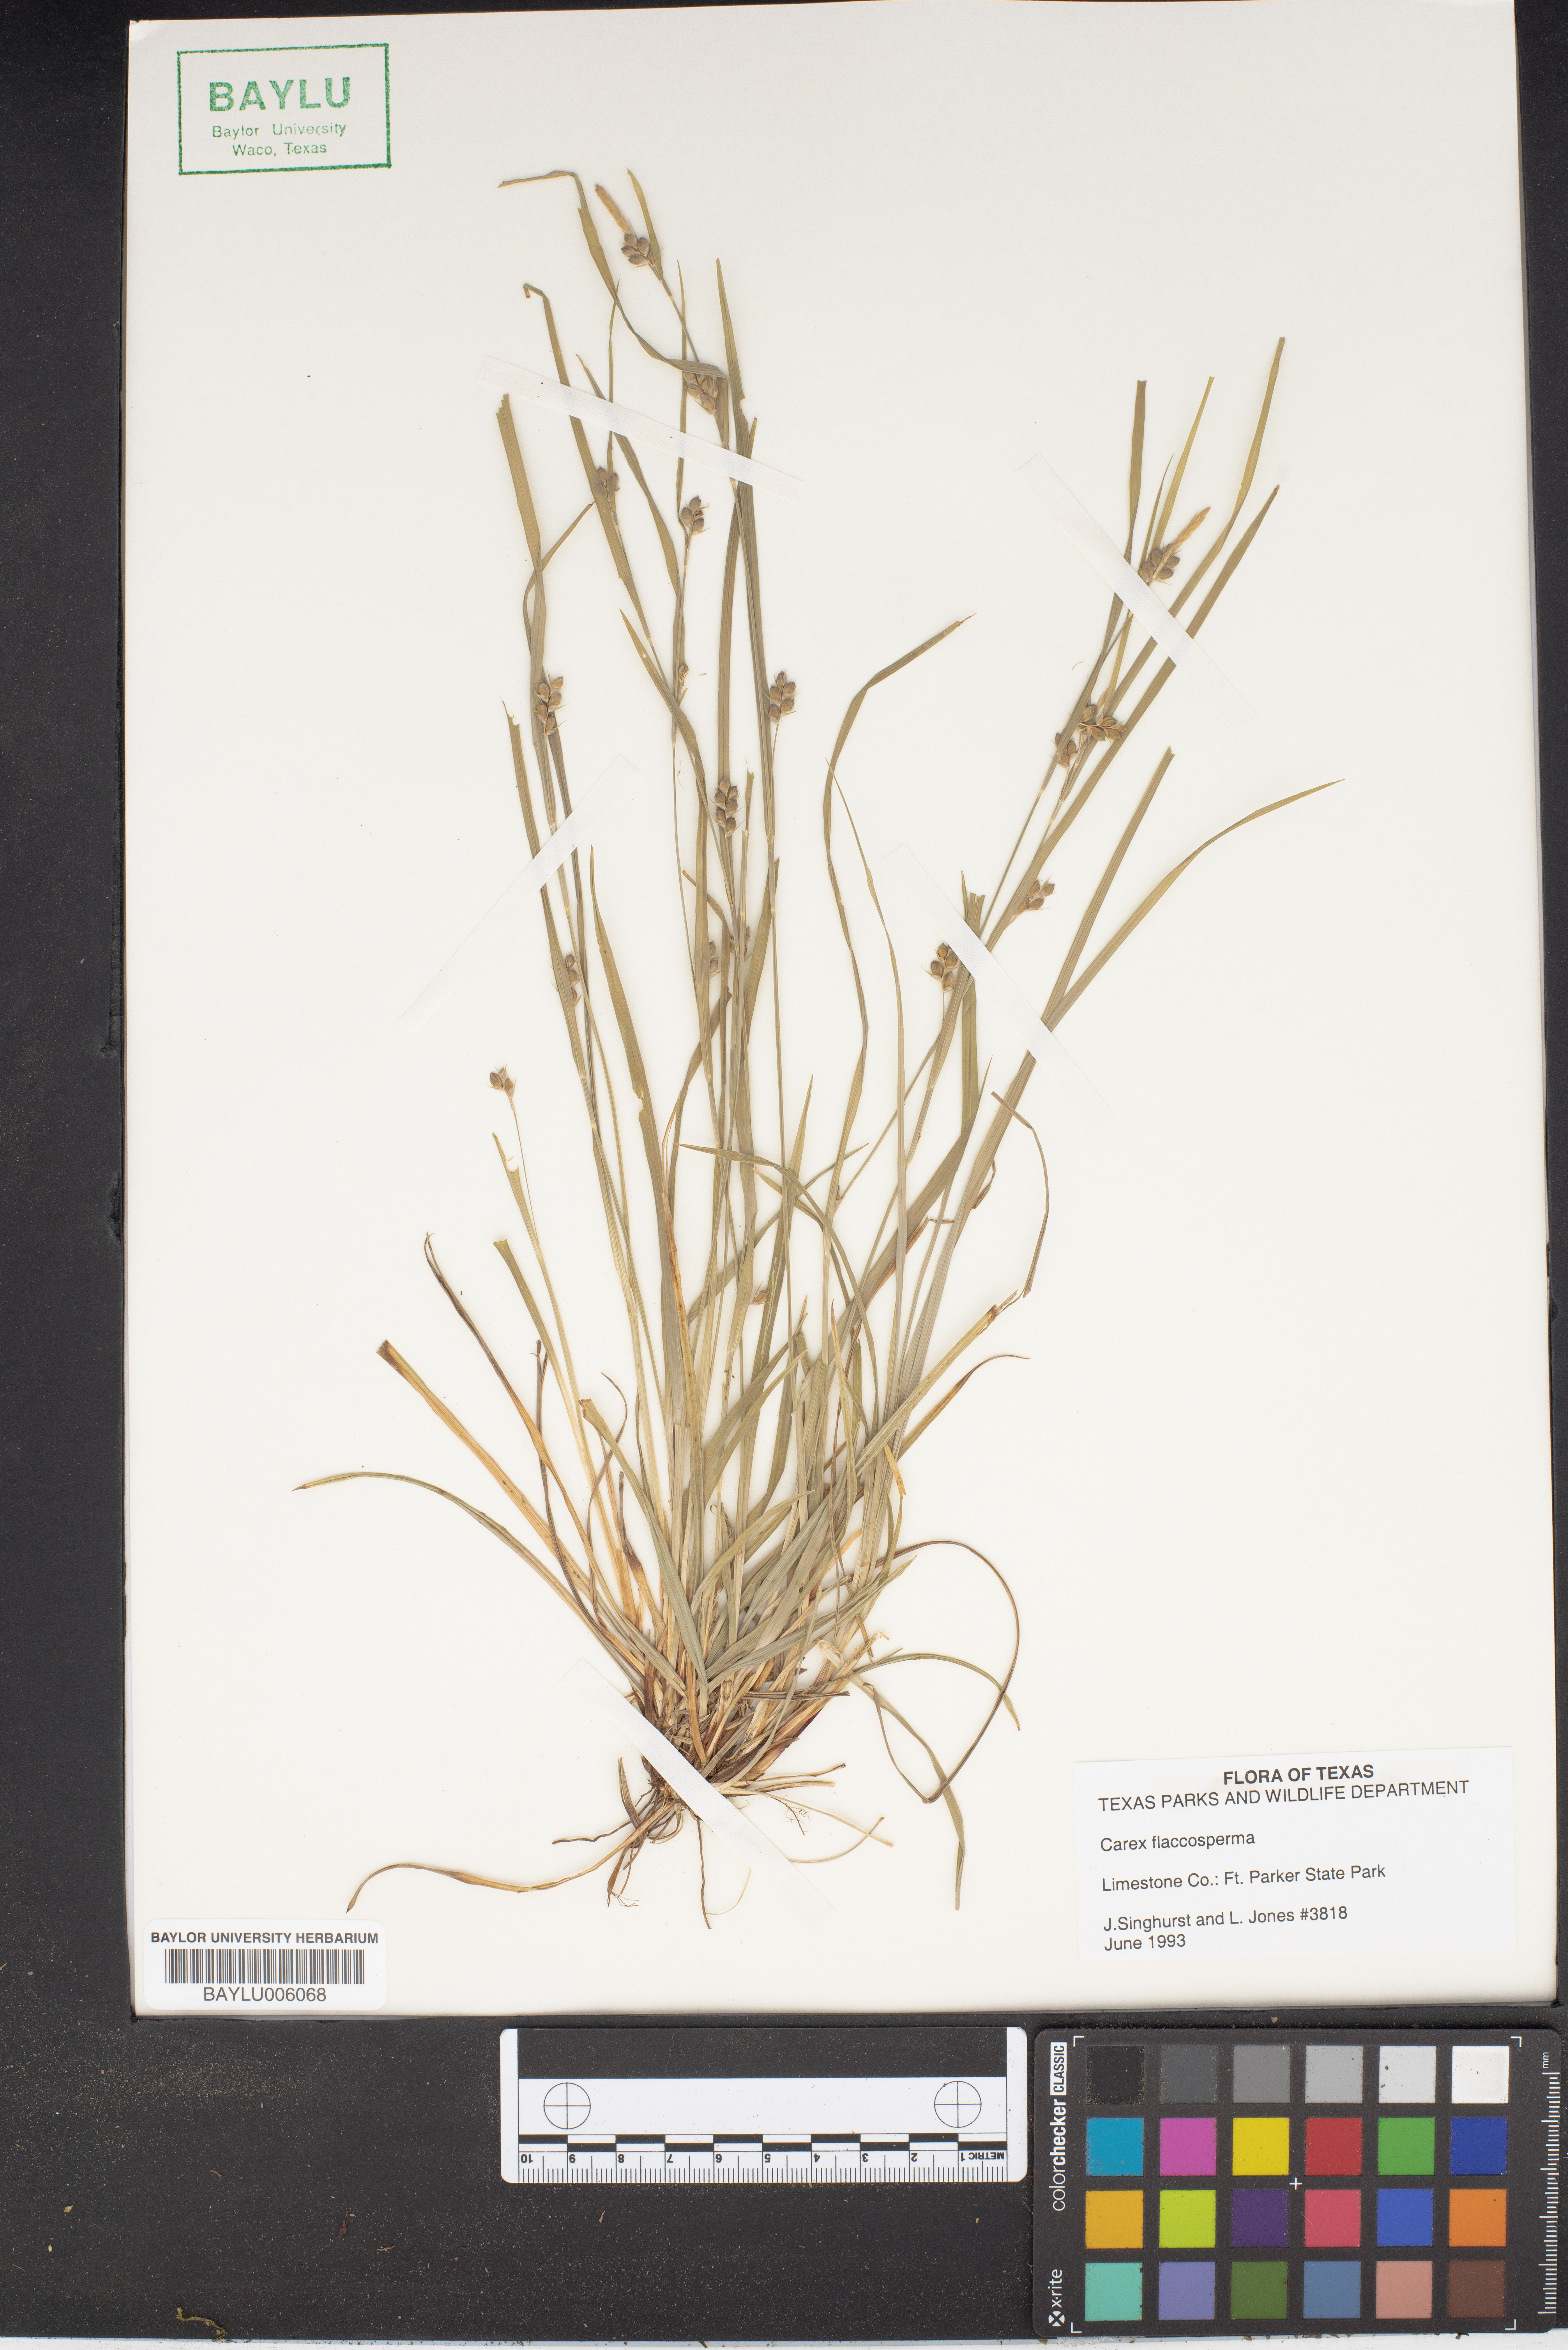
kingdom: Plantae
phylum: Tracheophyta
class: Liliopsida
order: Poales
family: Cyperaceae
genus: Carex
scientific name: Carex flaccosperma
